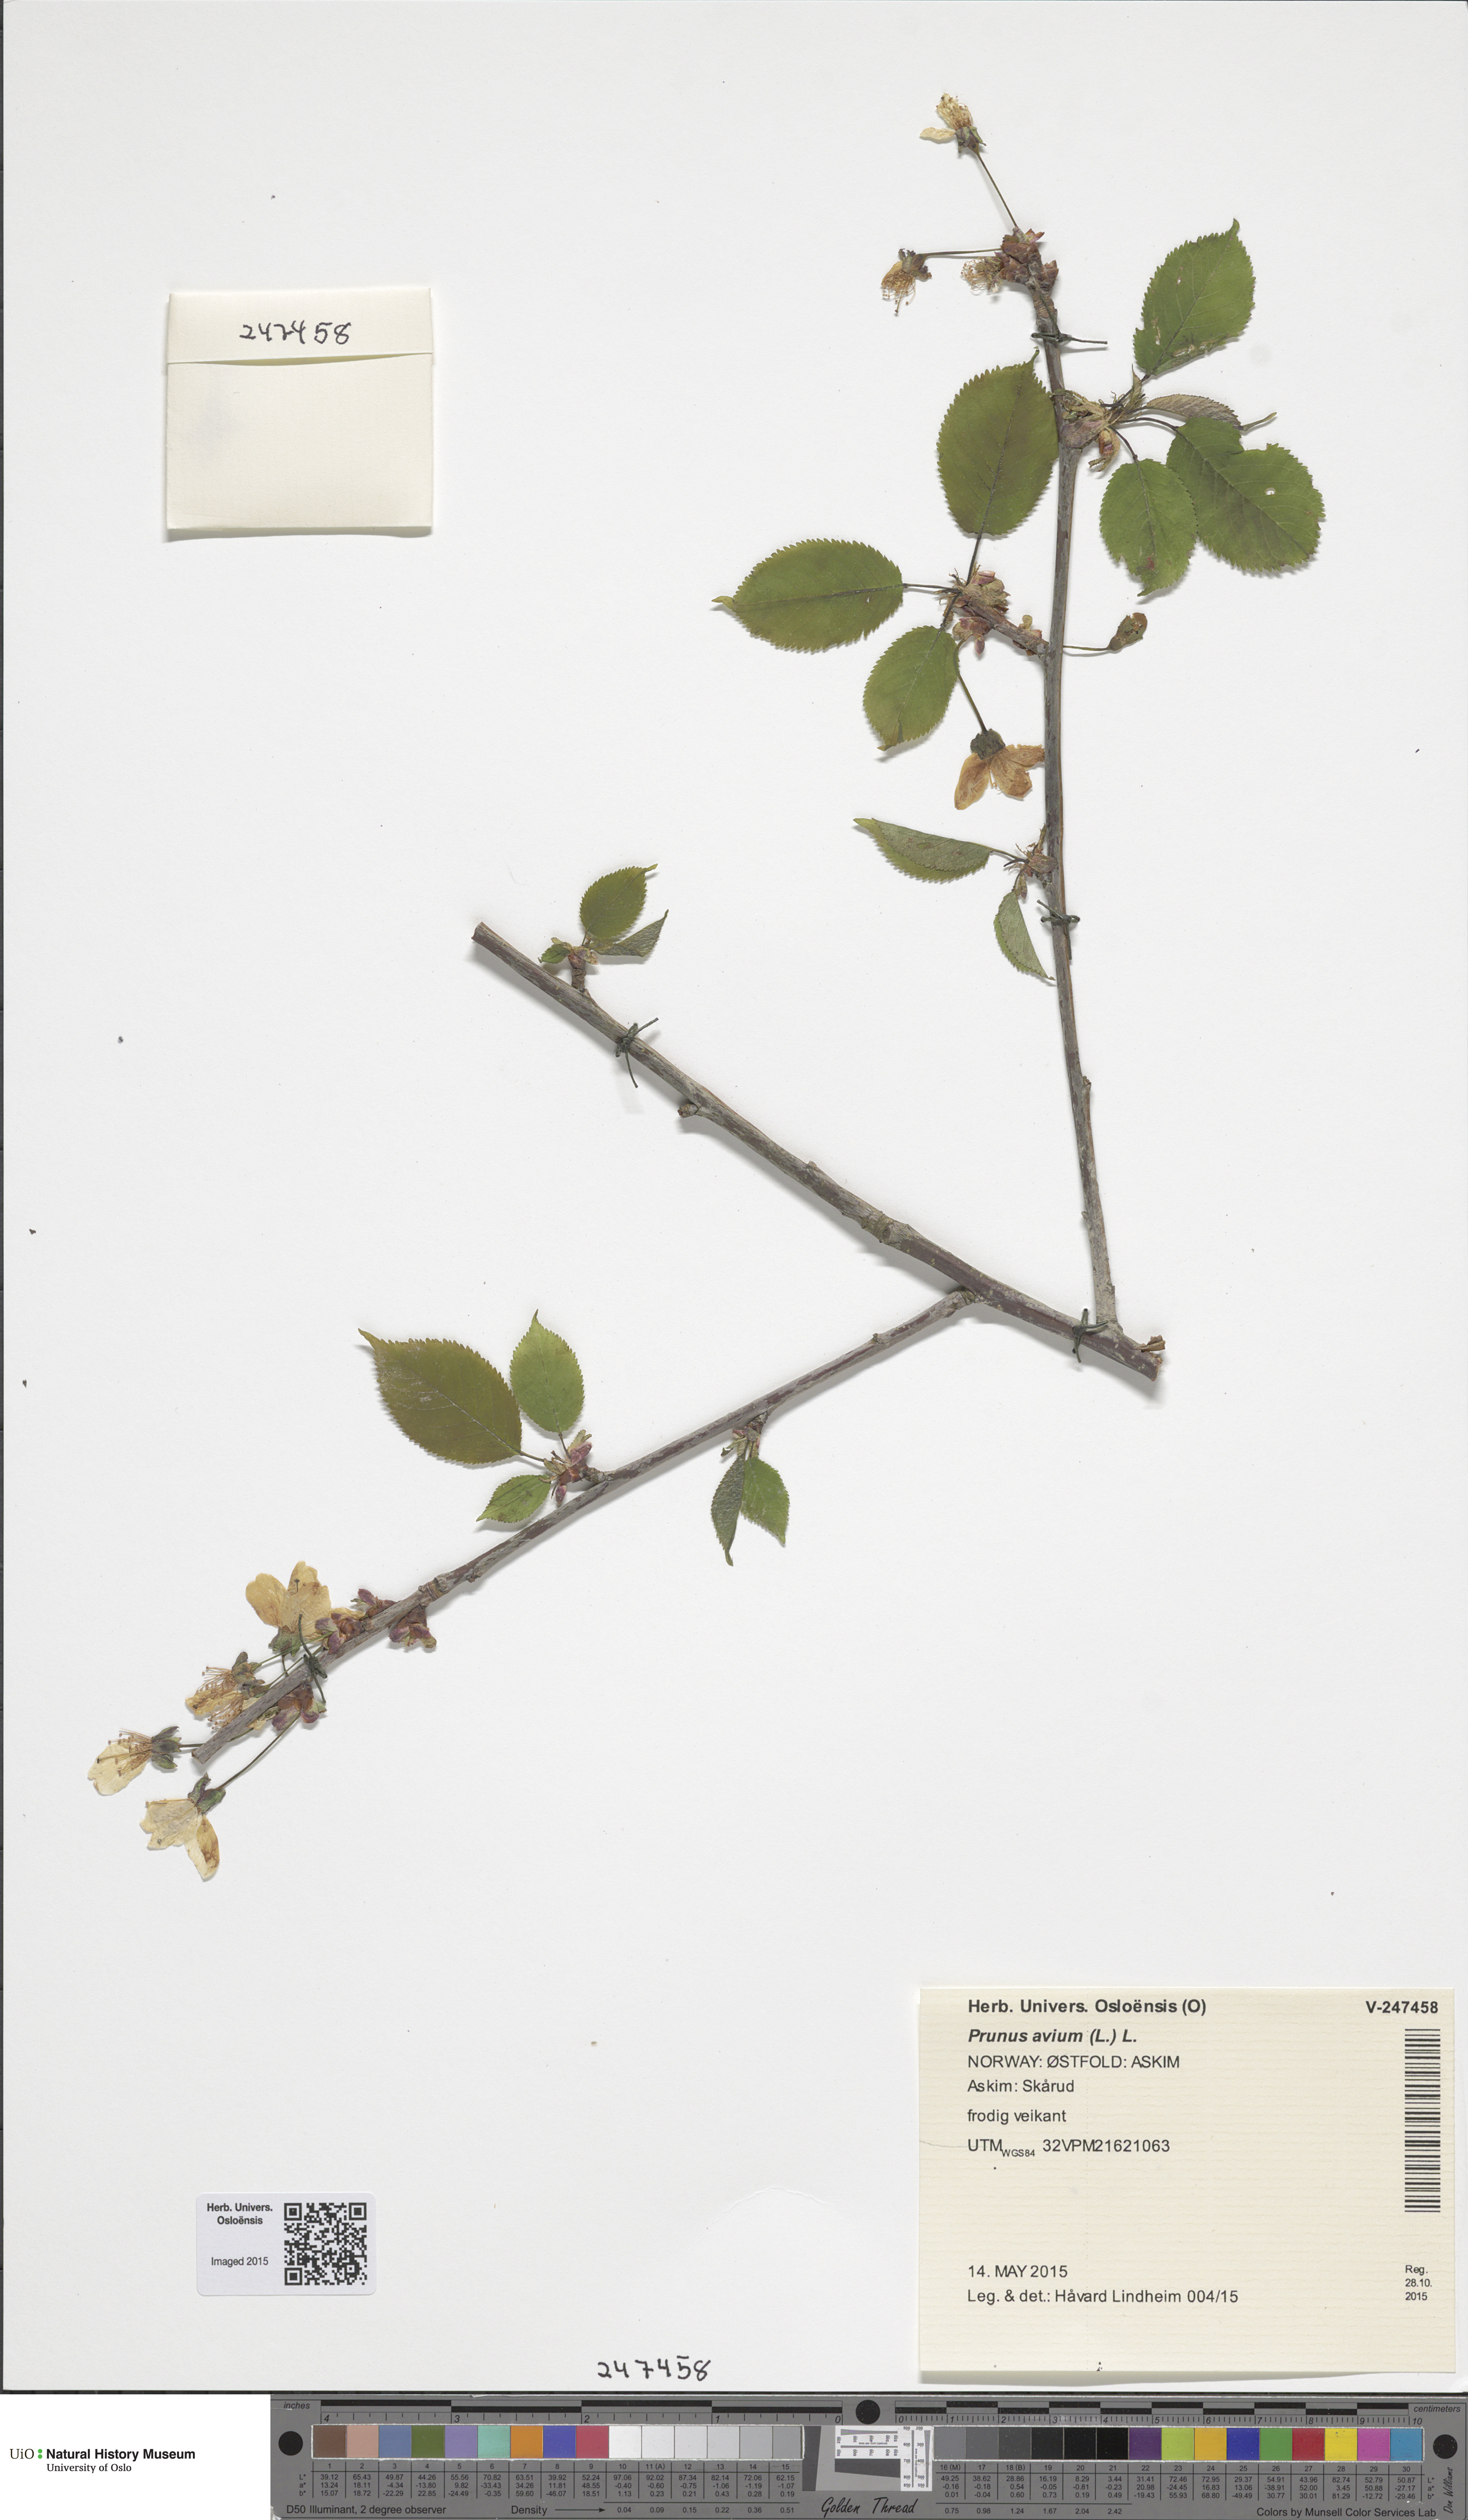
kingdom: Plantae
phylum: Tracheophyta
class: Magnoliopsida
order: Rosales
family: Rosaceae
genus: Prunus
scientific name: Prunus avium
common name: Sweet cherry
